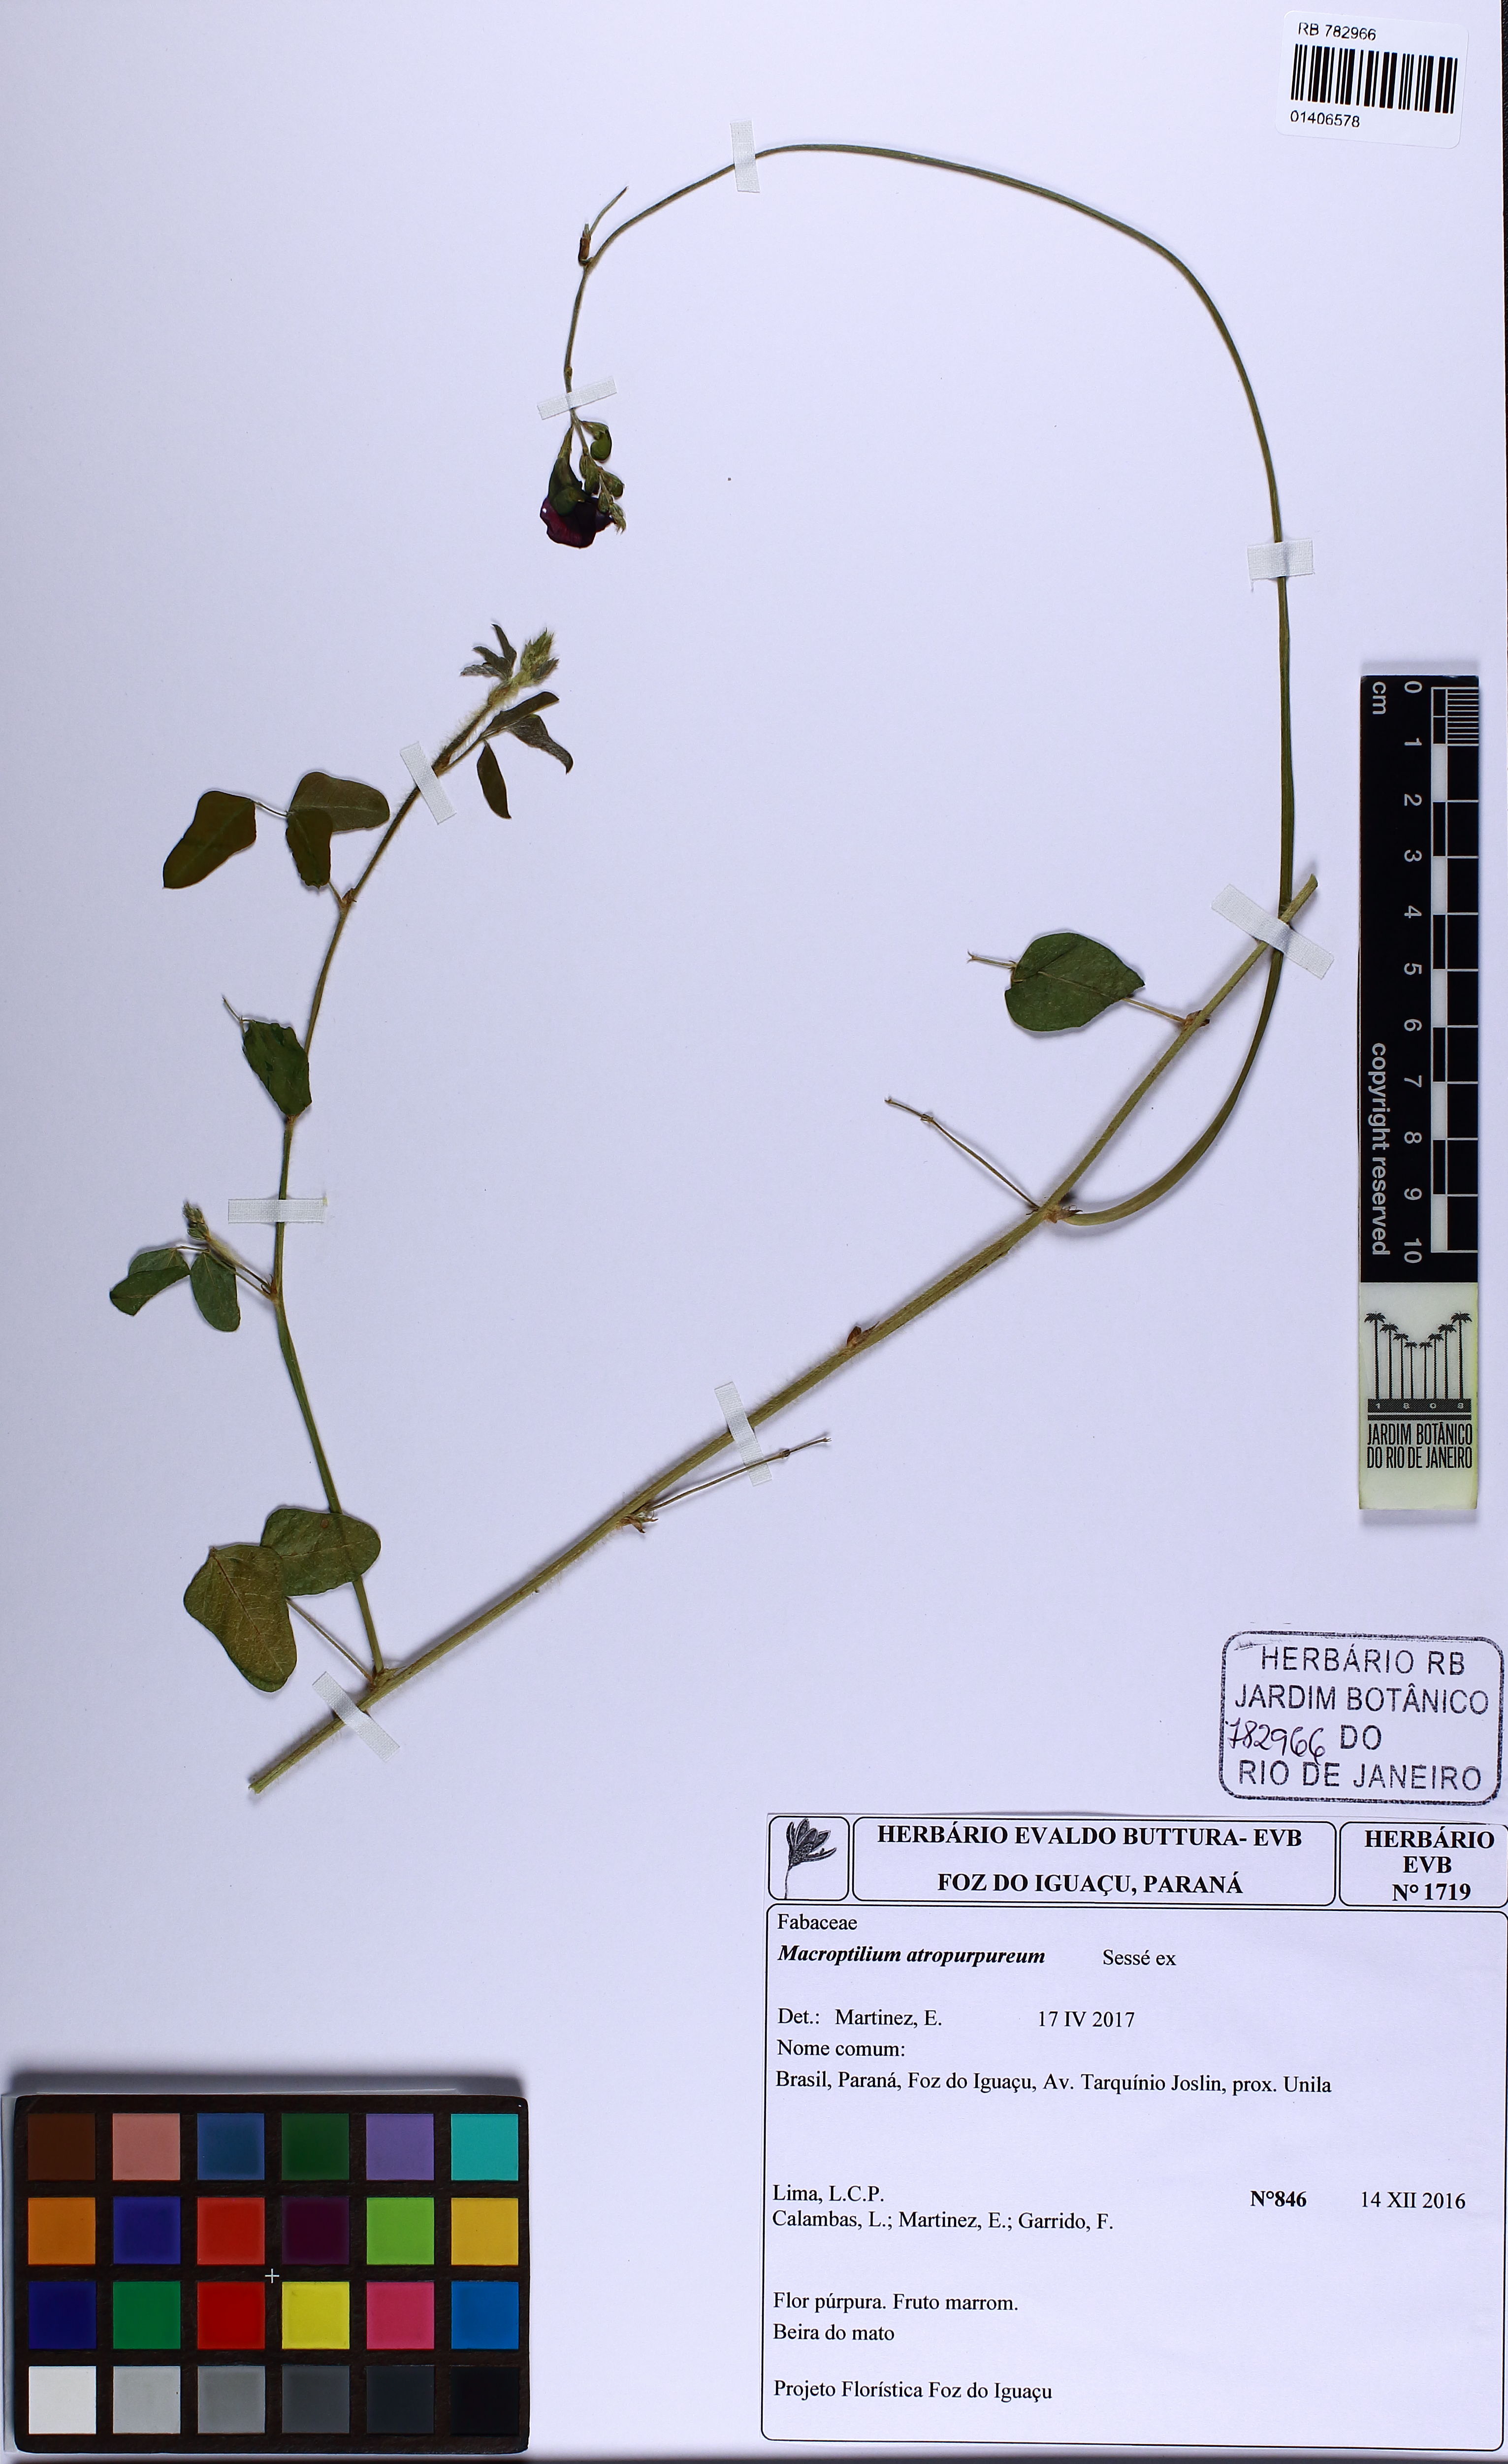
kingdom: Plantae
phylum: Tracheophyta
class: Magnoliopsida
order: Fabales
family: Fabaceae
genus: Macroptilium
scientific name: Macroptilium atropurpureum
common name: Purple bushbean
